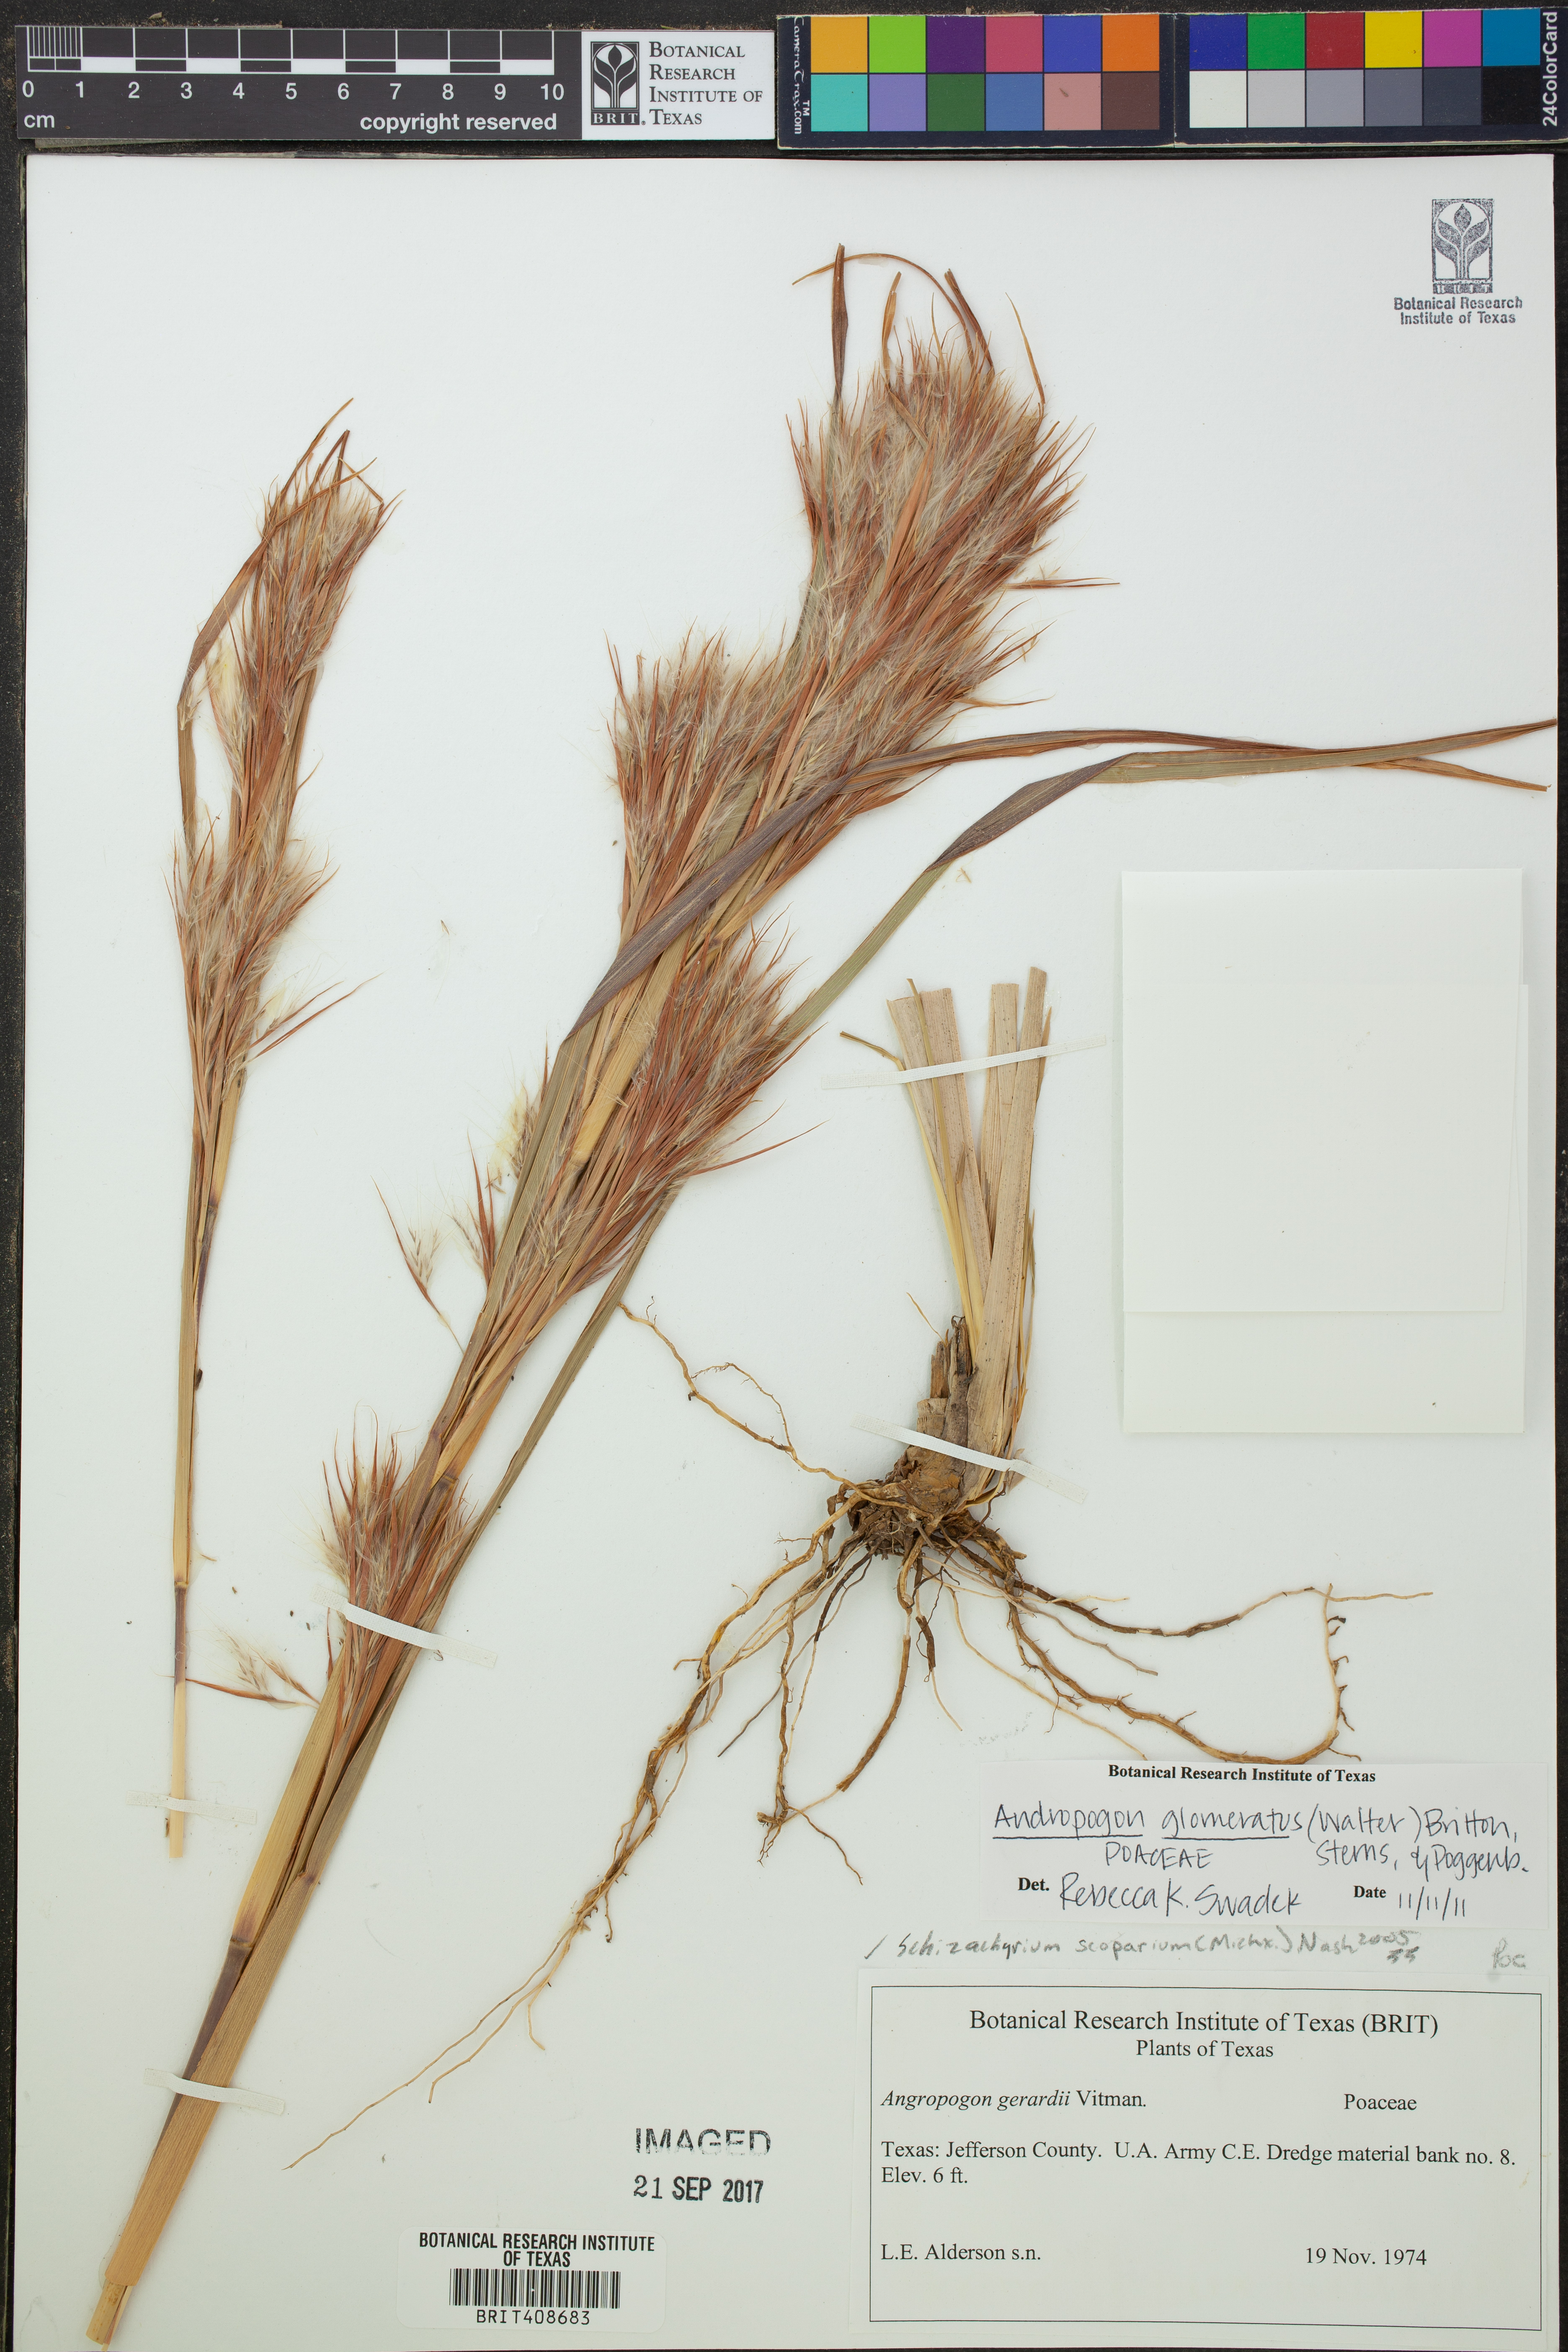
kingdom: Plantae
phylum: Tracheophyta
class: Liliopsida
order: Poales
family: Poaceae
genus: Andropogon
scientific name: Andropogon glomeratus
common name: Bushy beard grass
